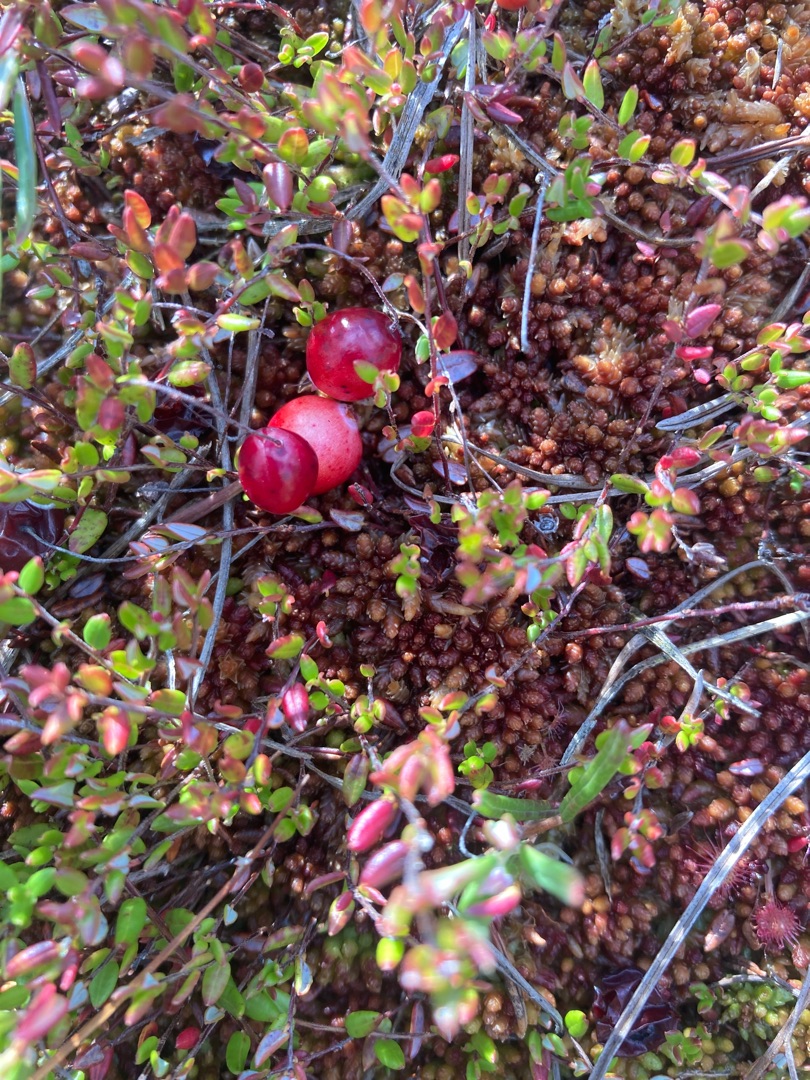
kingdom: Plantae
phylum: Tracheophyta
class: Magnoliopsida
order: Ericales
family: Ericaceae
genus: Vaccinium
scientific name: Vaccinium oxycoccos
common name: Tranebær
